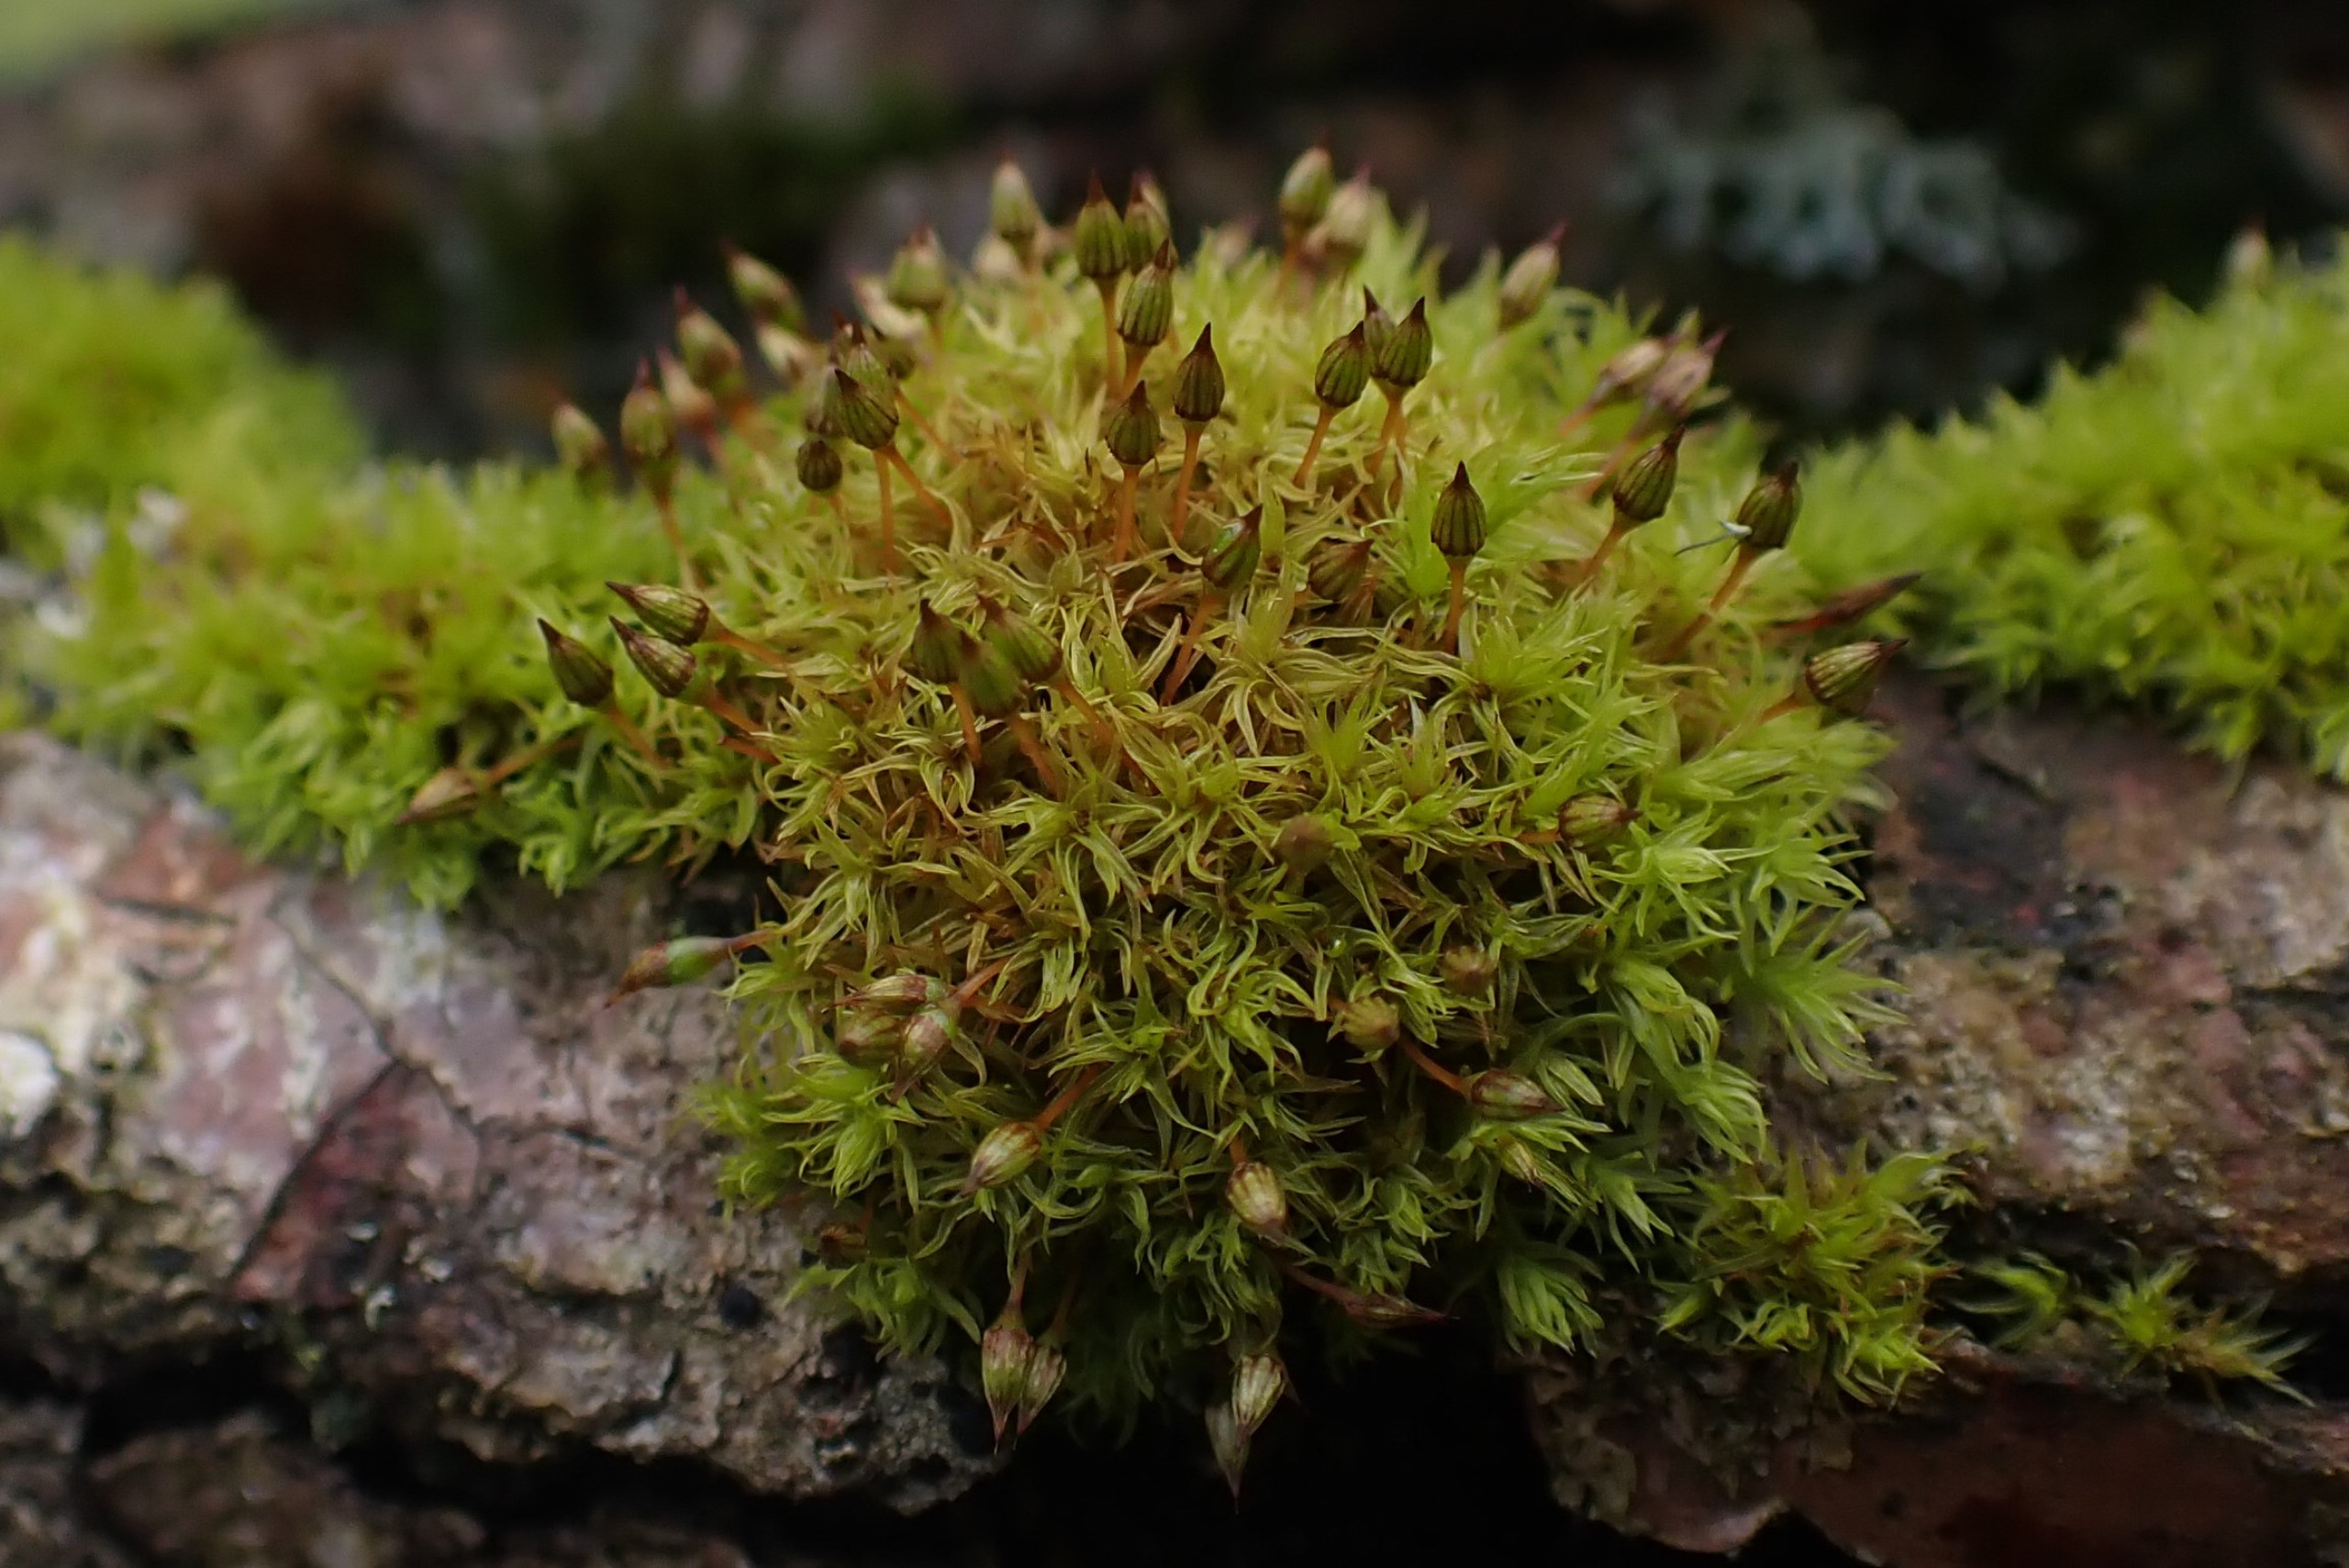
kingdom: Plantae
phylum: Bryophyta
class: Bryopsida
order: Orthotrichales
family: Orthotrichaceae
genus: Orthotrichum
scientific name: Orthotrichum pulchellum
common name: Smuk furehætte
